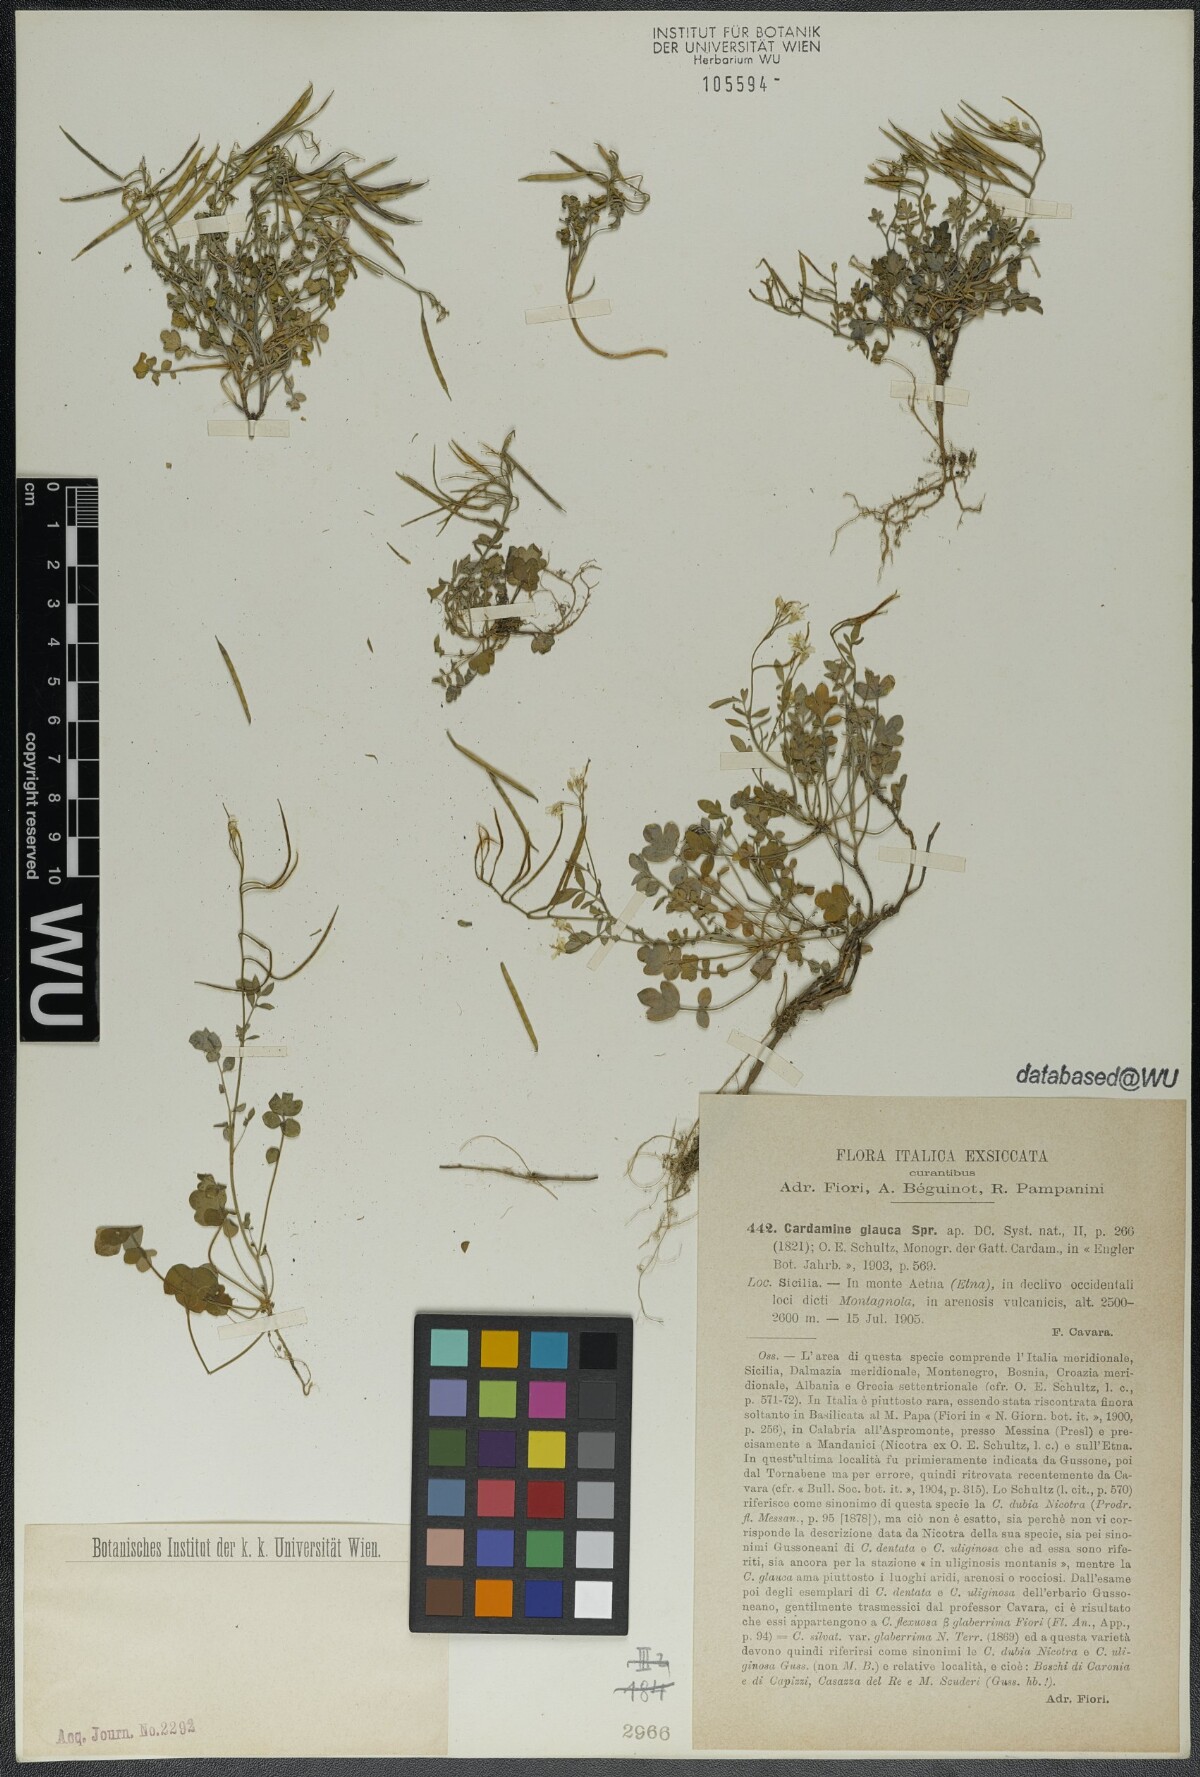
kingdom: Plantae
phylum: Tracheophyta
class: Magnoliopsida
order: Brassicales
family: Brassicaceae
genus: Cardamine
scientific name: Cardamine glauca
